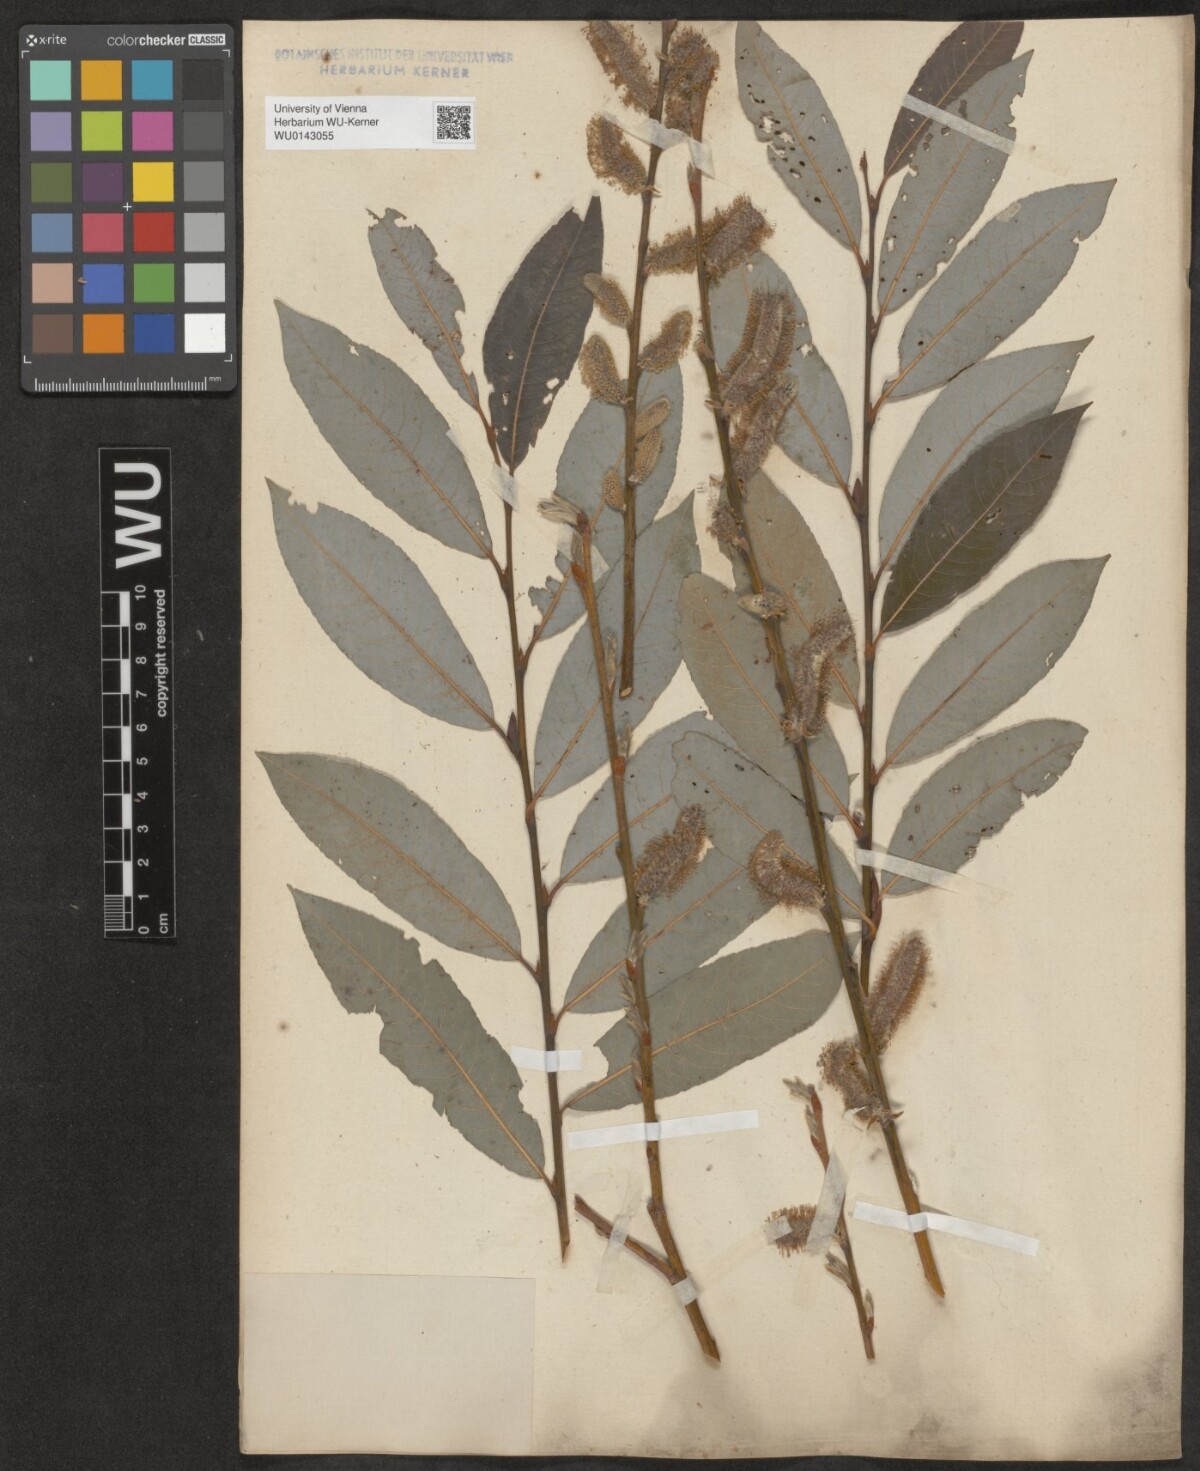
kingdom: Plantae
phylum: Tracheophyta
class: Magnoliopsida
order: Malpighiales
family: Salicaceae
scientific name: Salicaceae
